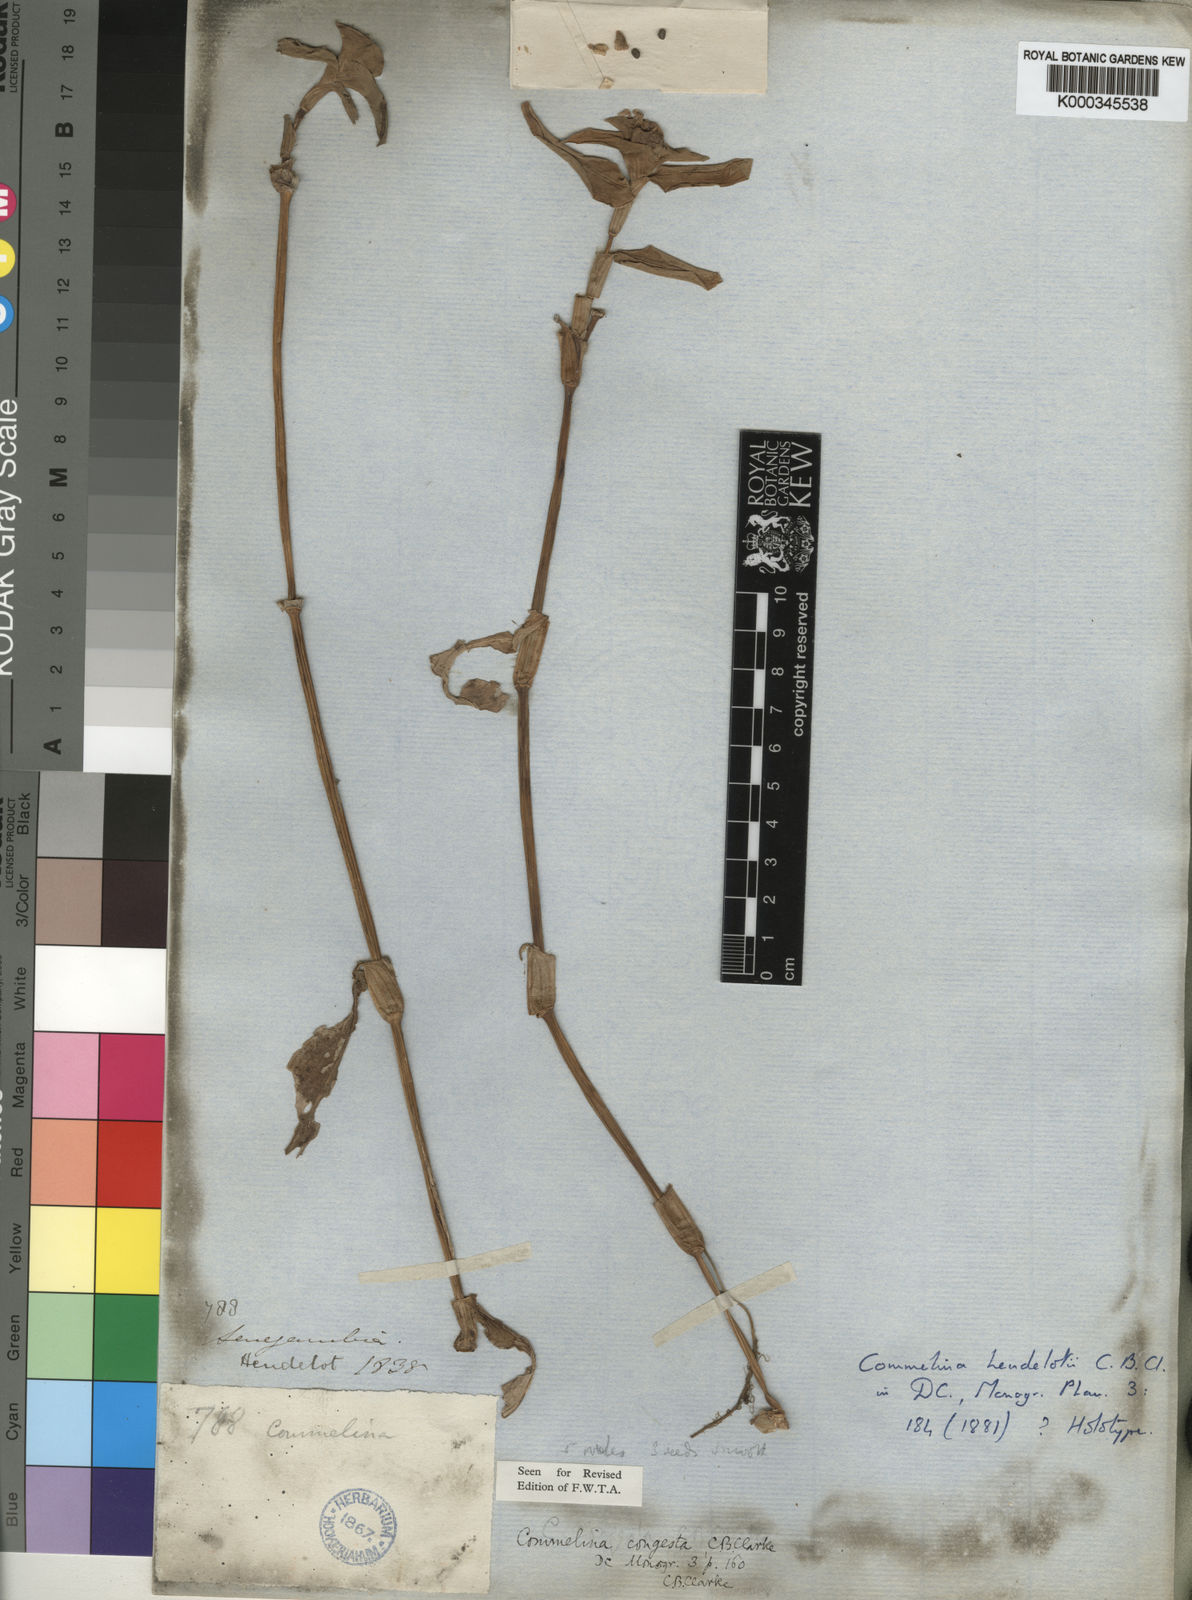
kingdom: Plantae
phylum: Tracheophyta
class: Liliopsida
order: Commelinales
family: Commelinaceae
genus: Commelina
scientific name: Commelina congesta
